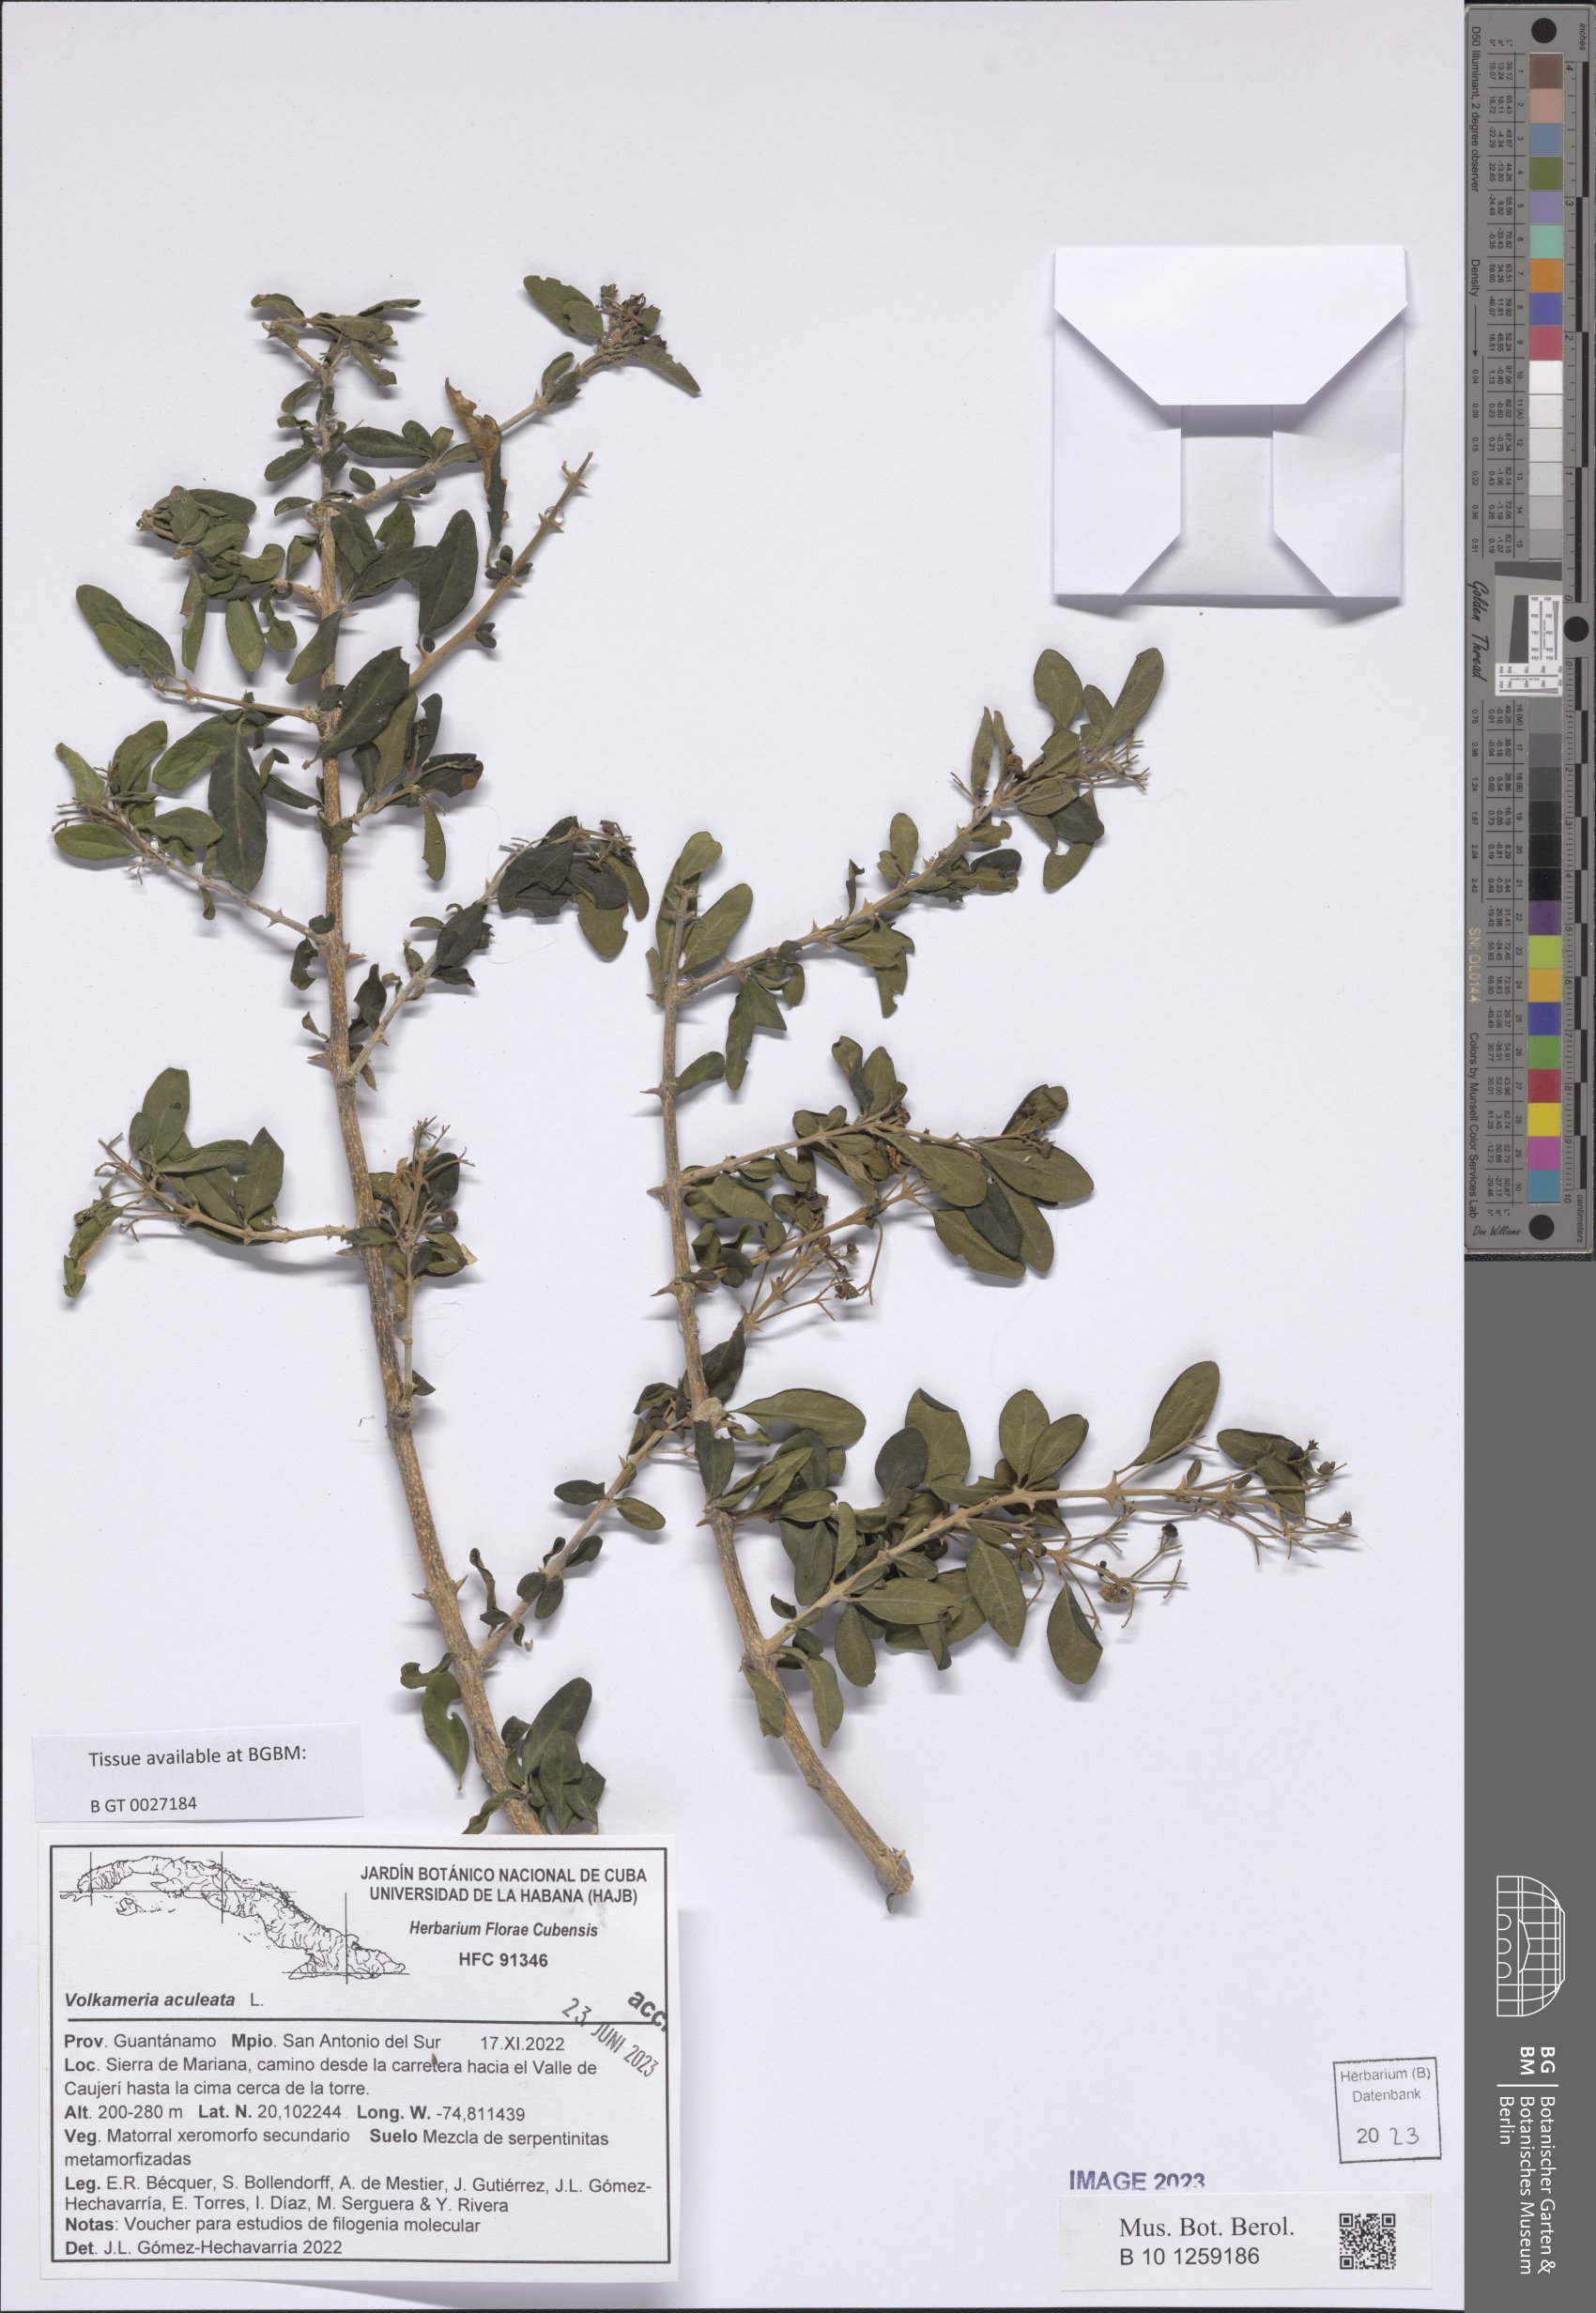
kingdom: Plantae
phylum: Tracheophyta
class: Magnoliopsida
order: Lamiales
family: Lamiaceae
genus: Volkameria
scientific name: Volkameria aculeata
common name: Prickly myrtle
